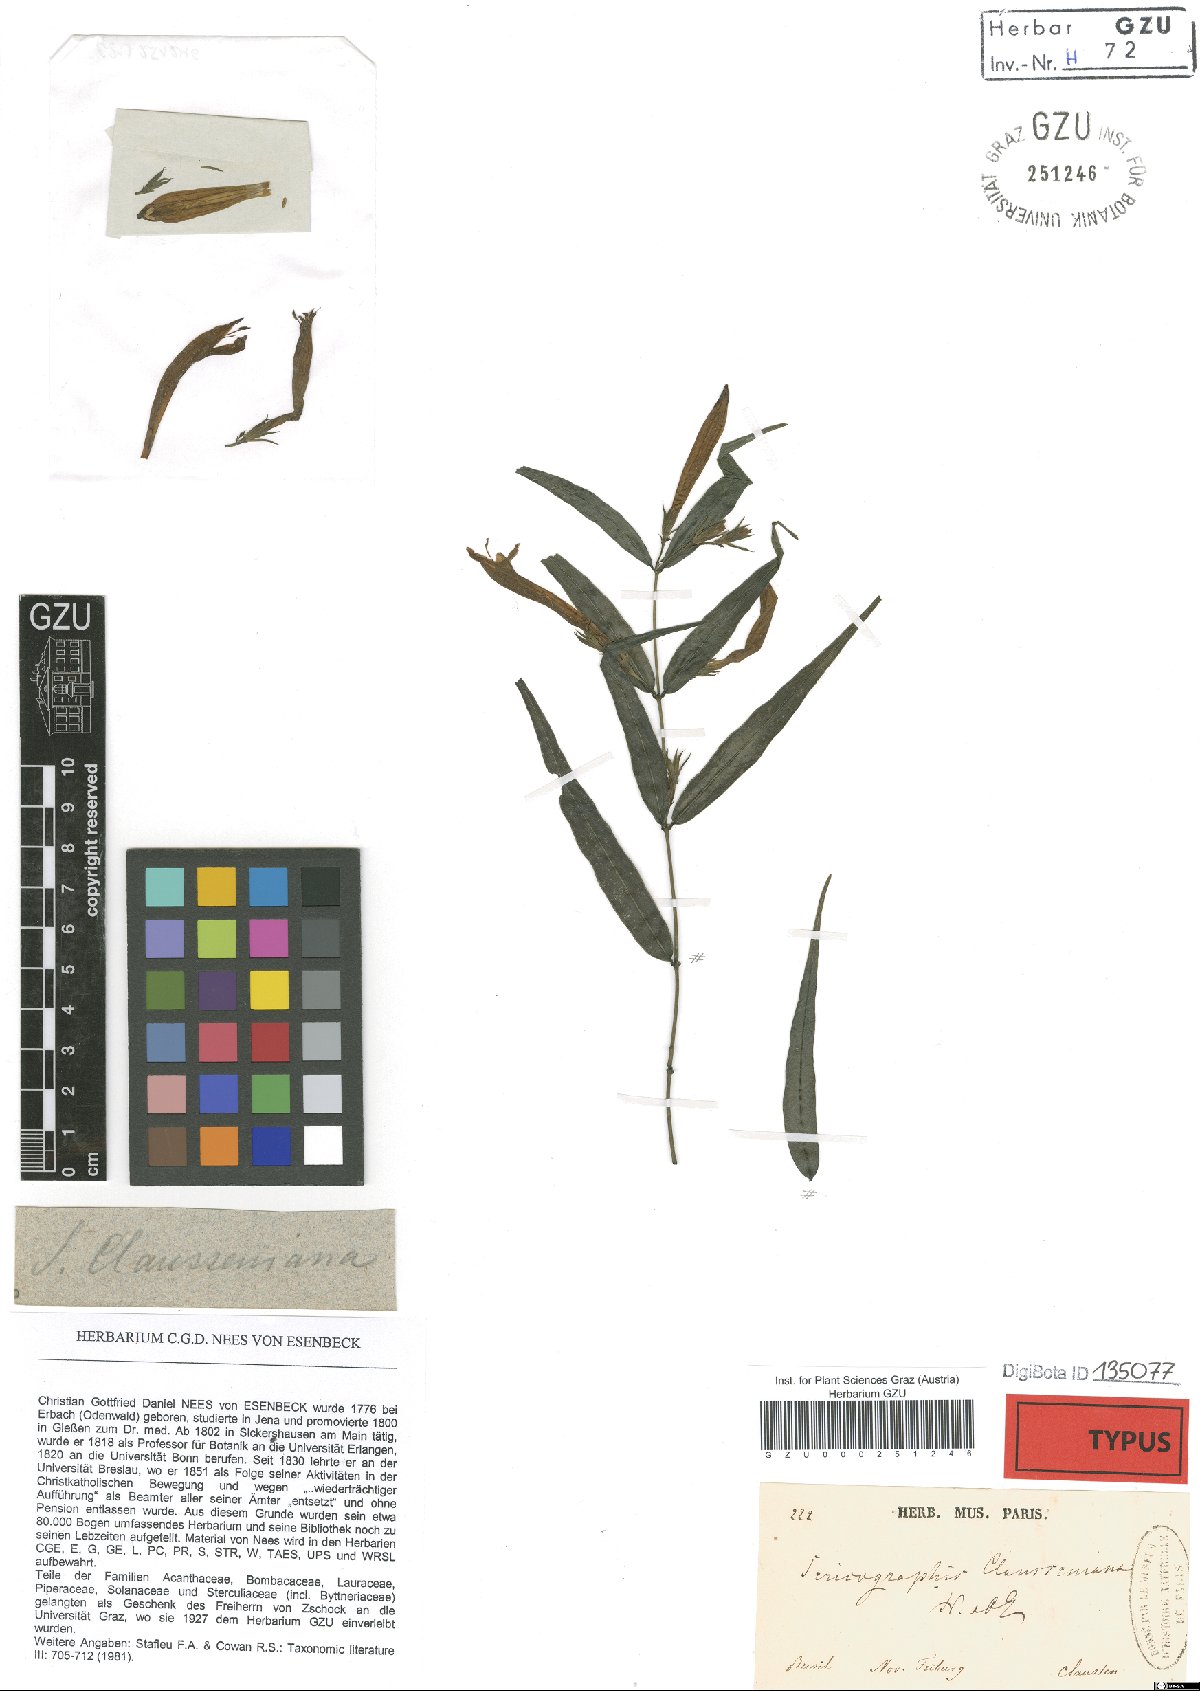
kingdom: Plantae
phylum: Tracheophyta
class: Magnoliopsida
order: Lamiales
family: Acanthaceae
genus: Justicia
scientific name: Justicia clausseniana
